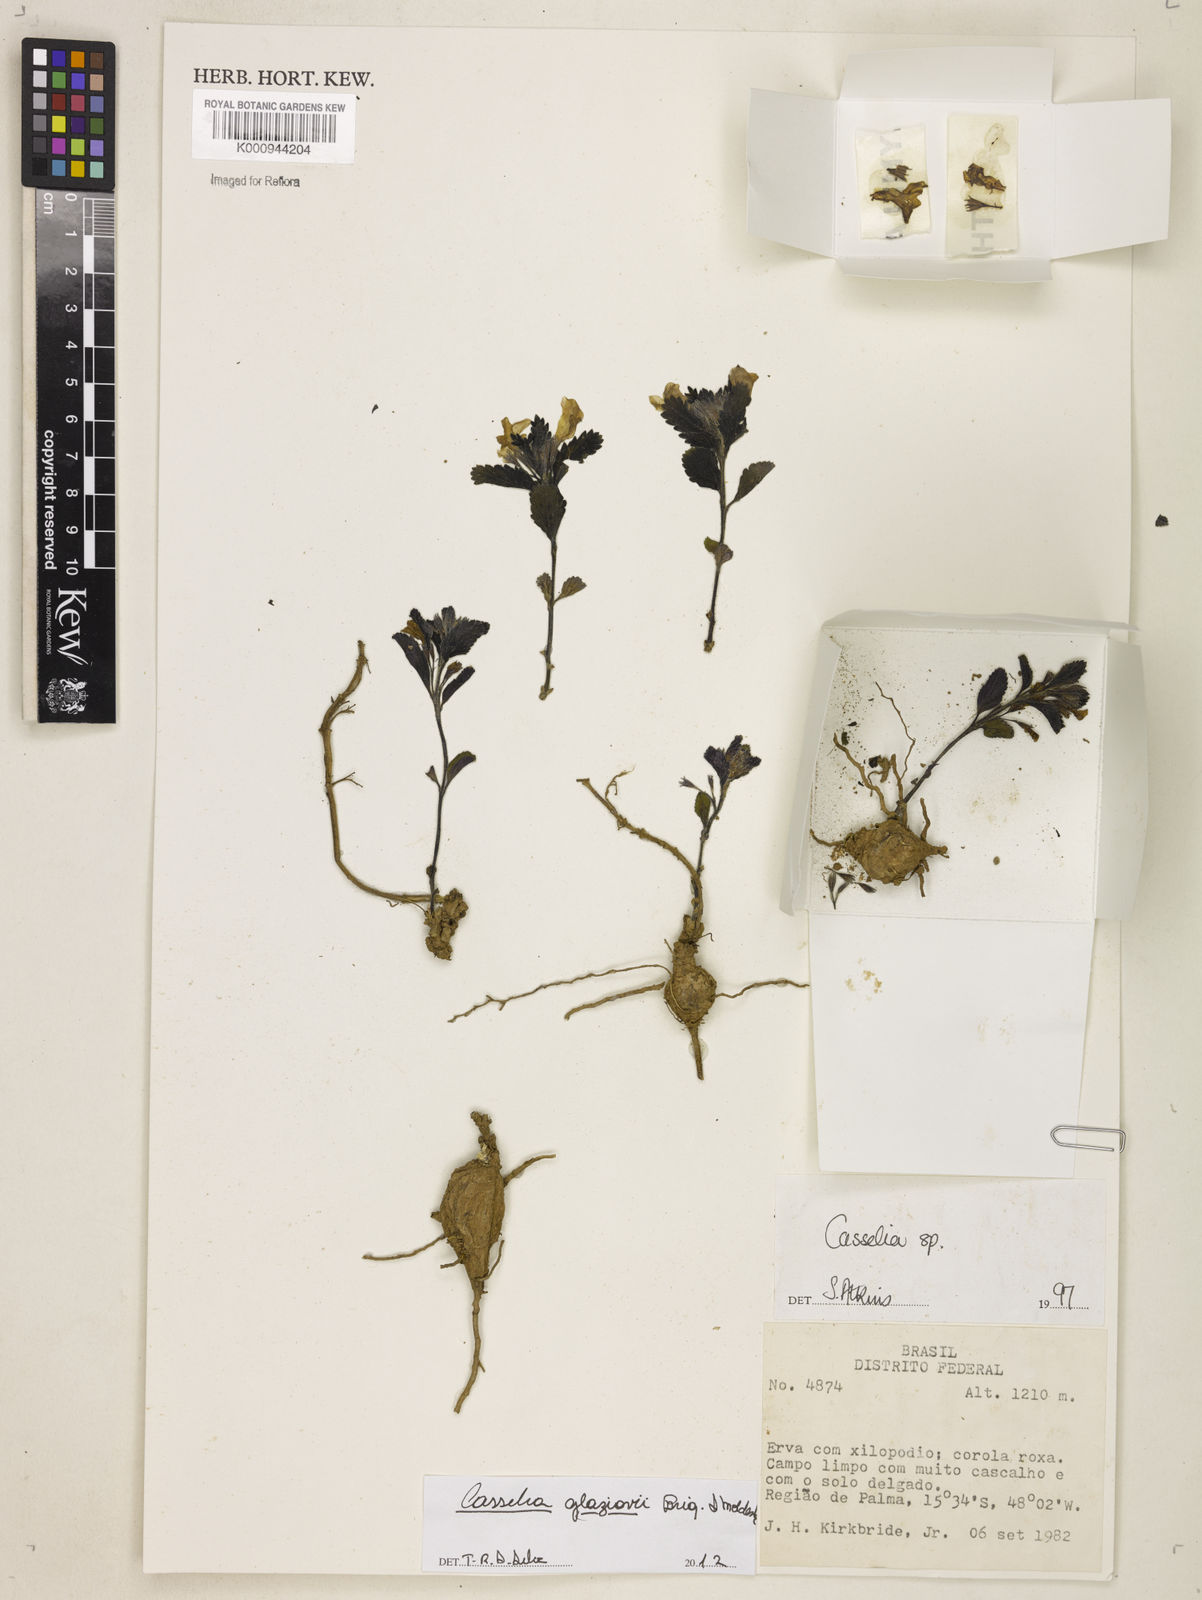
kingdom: Plantae
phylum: Tracheophyta
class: Magnoliopsida
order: Lamiales
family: Verbenaceae
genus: Casselia
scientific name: Casselia glaziovii
